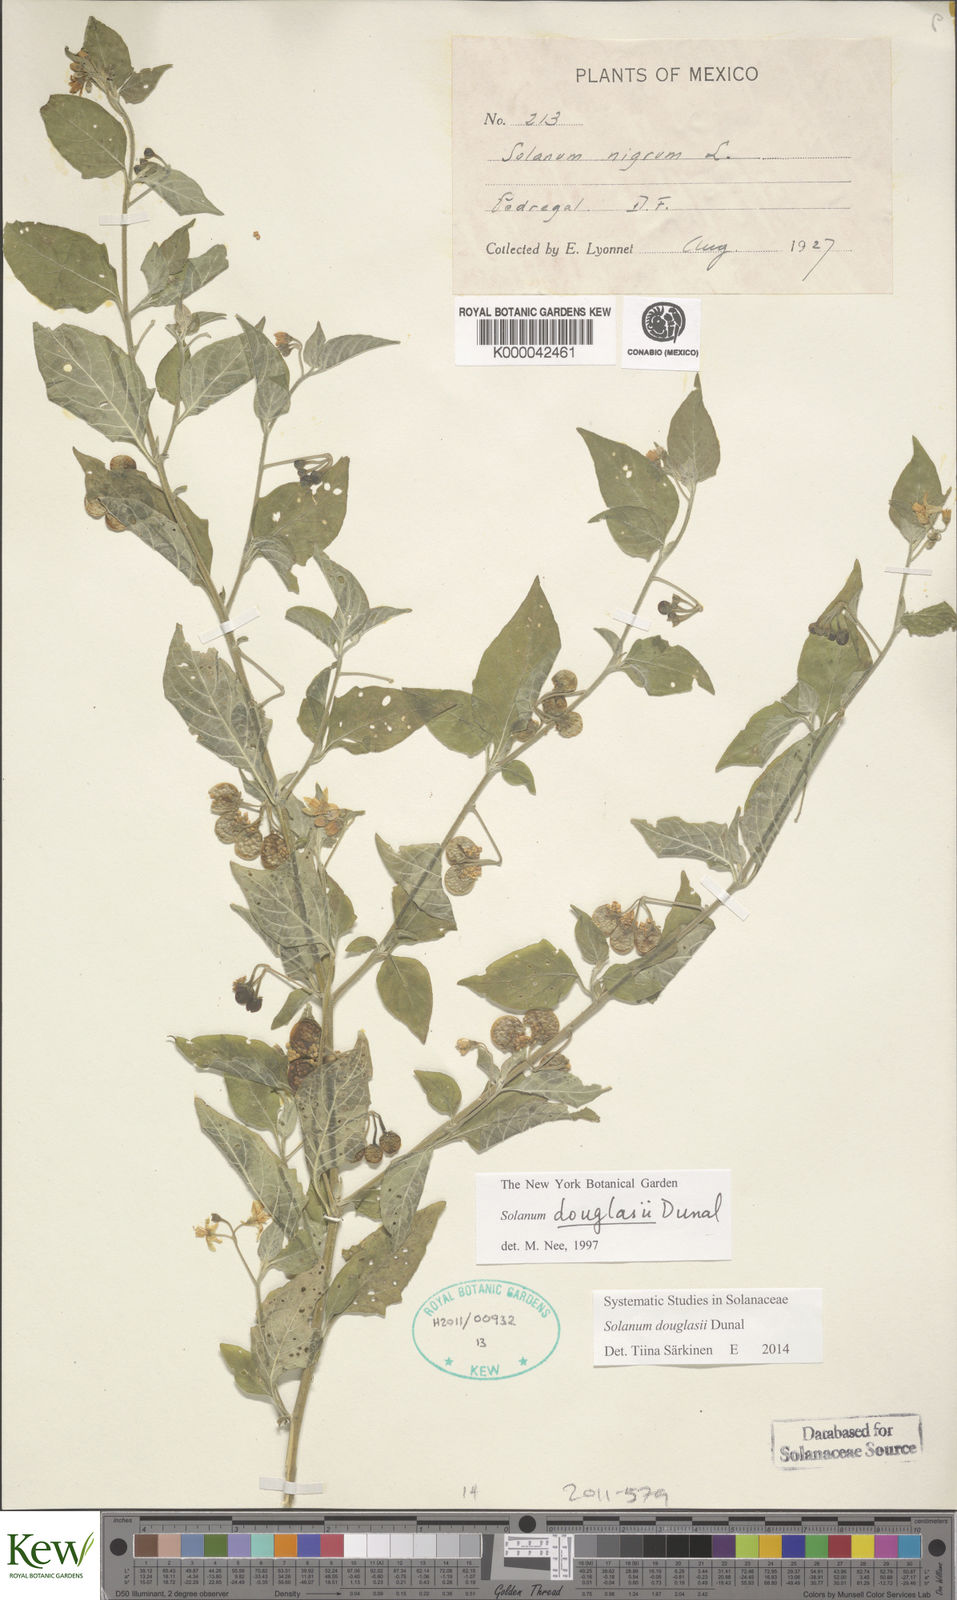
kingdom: Plantae
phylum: Tracheophyta
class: Magnoliopsida
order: Solanales
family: Solanaceae
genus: Solanum
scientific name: Solanum douglasii
